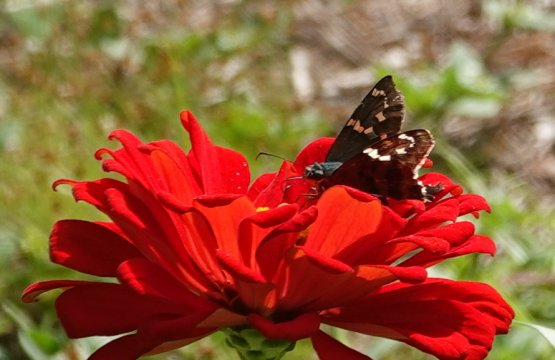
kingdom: Animalia
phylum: Arthropoda
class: Insecta
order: Lepidoptera
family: Hesperiidae
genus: Urbanus
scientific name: Urbanus proteus
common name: Long-tailed Skipper
